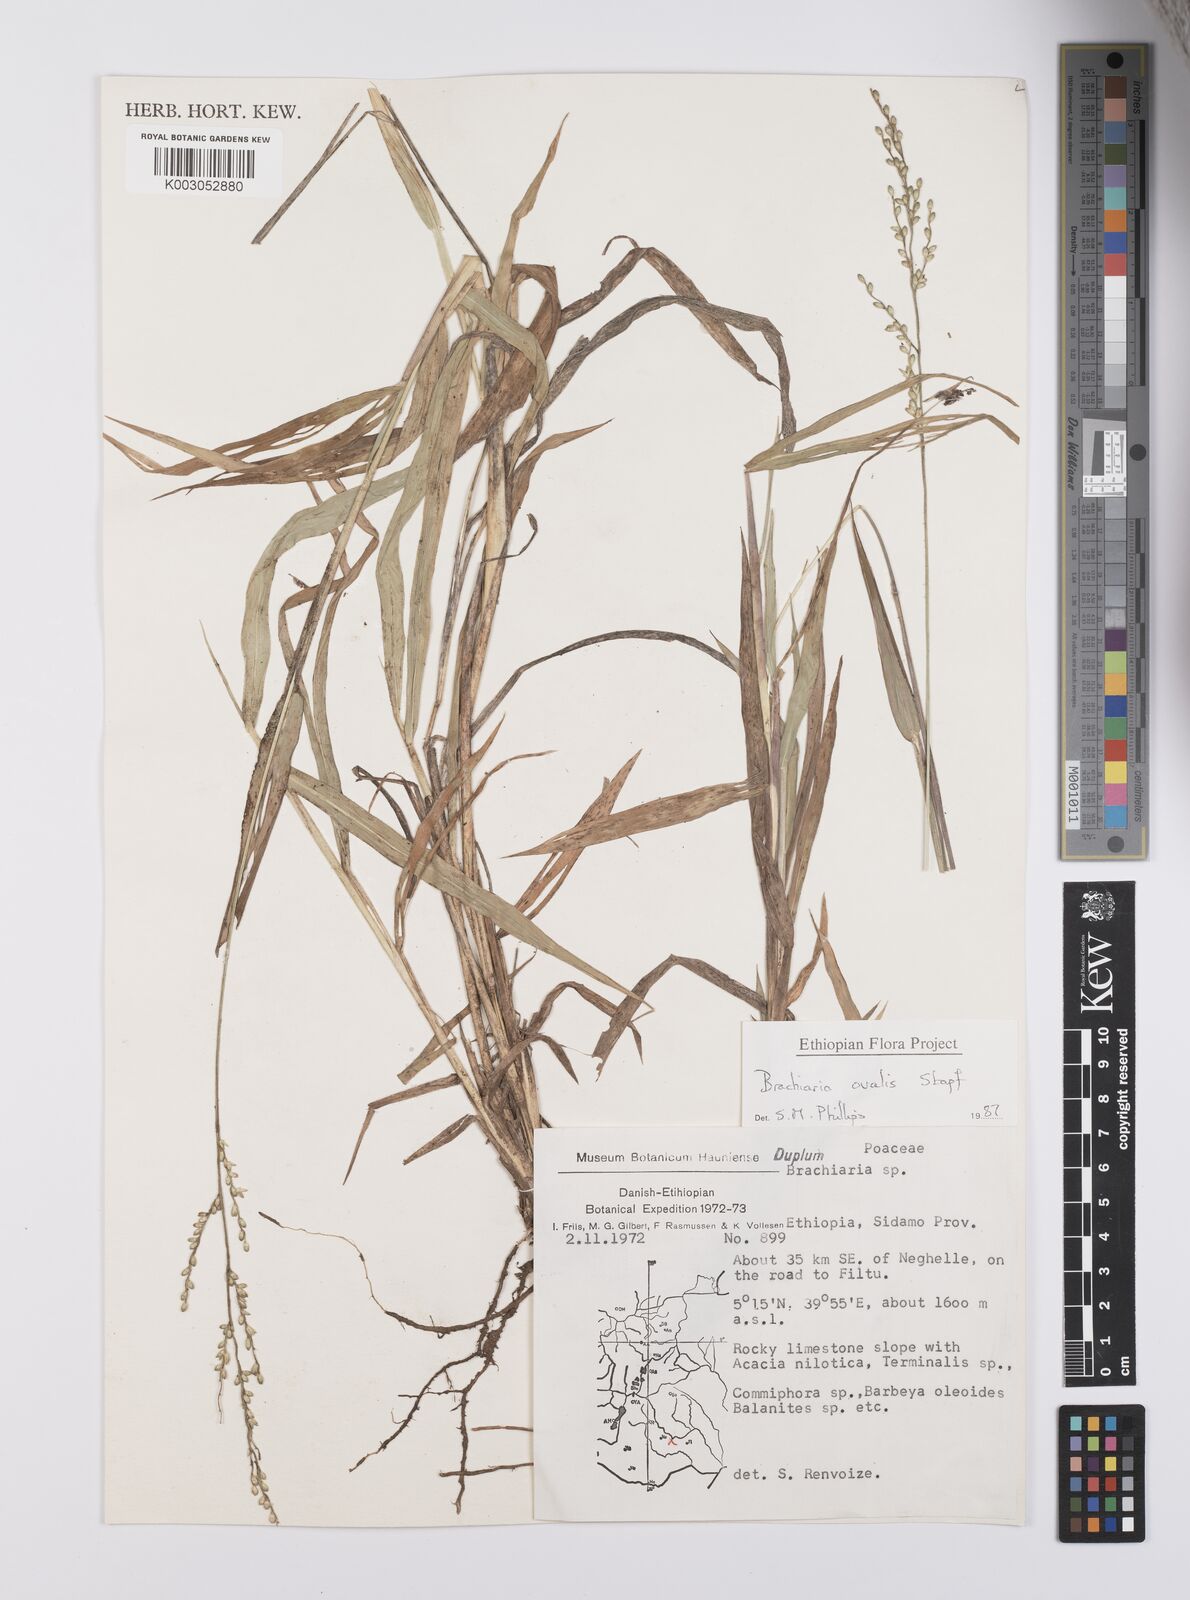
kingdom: Plantae
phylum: Tracheophyta
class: Liliopsida
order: Poales
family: Poaceae
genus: Urochloa
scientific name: Urochloa ovalis
